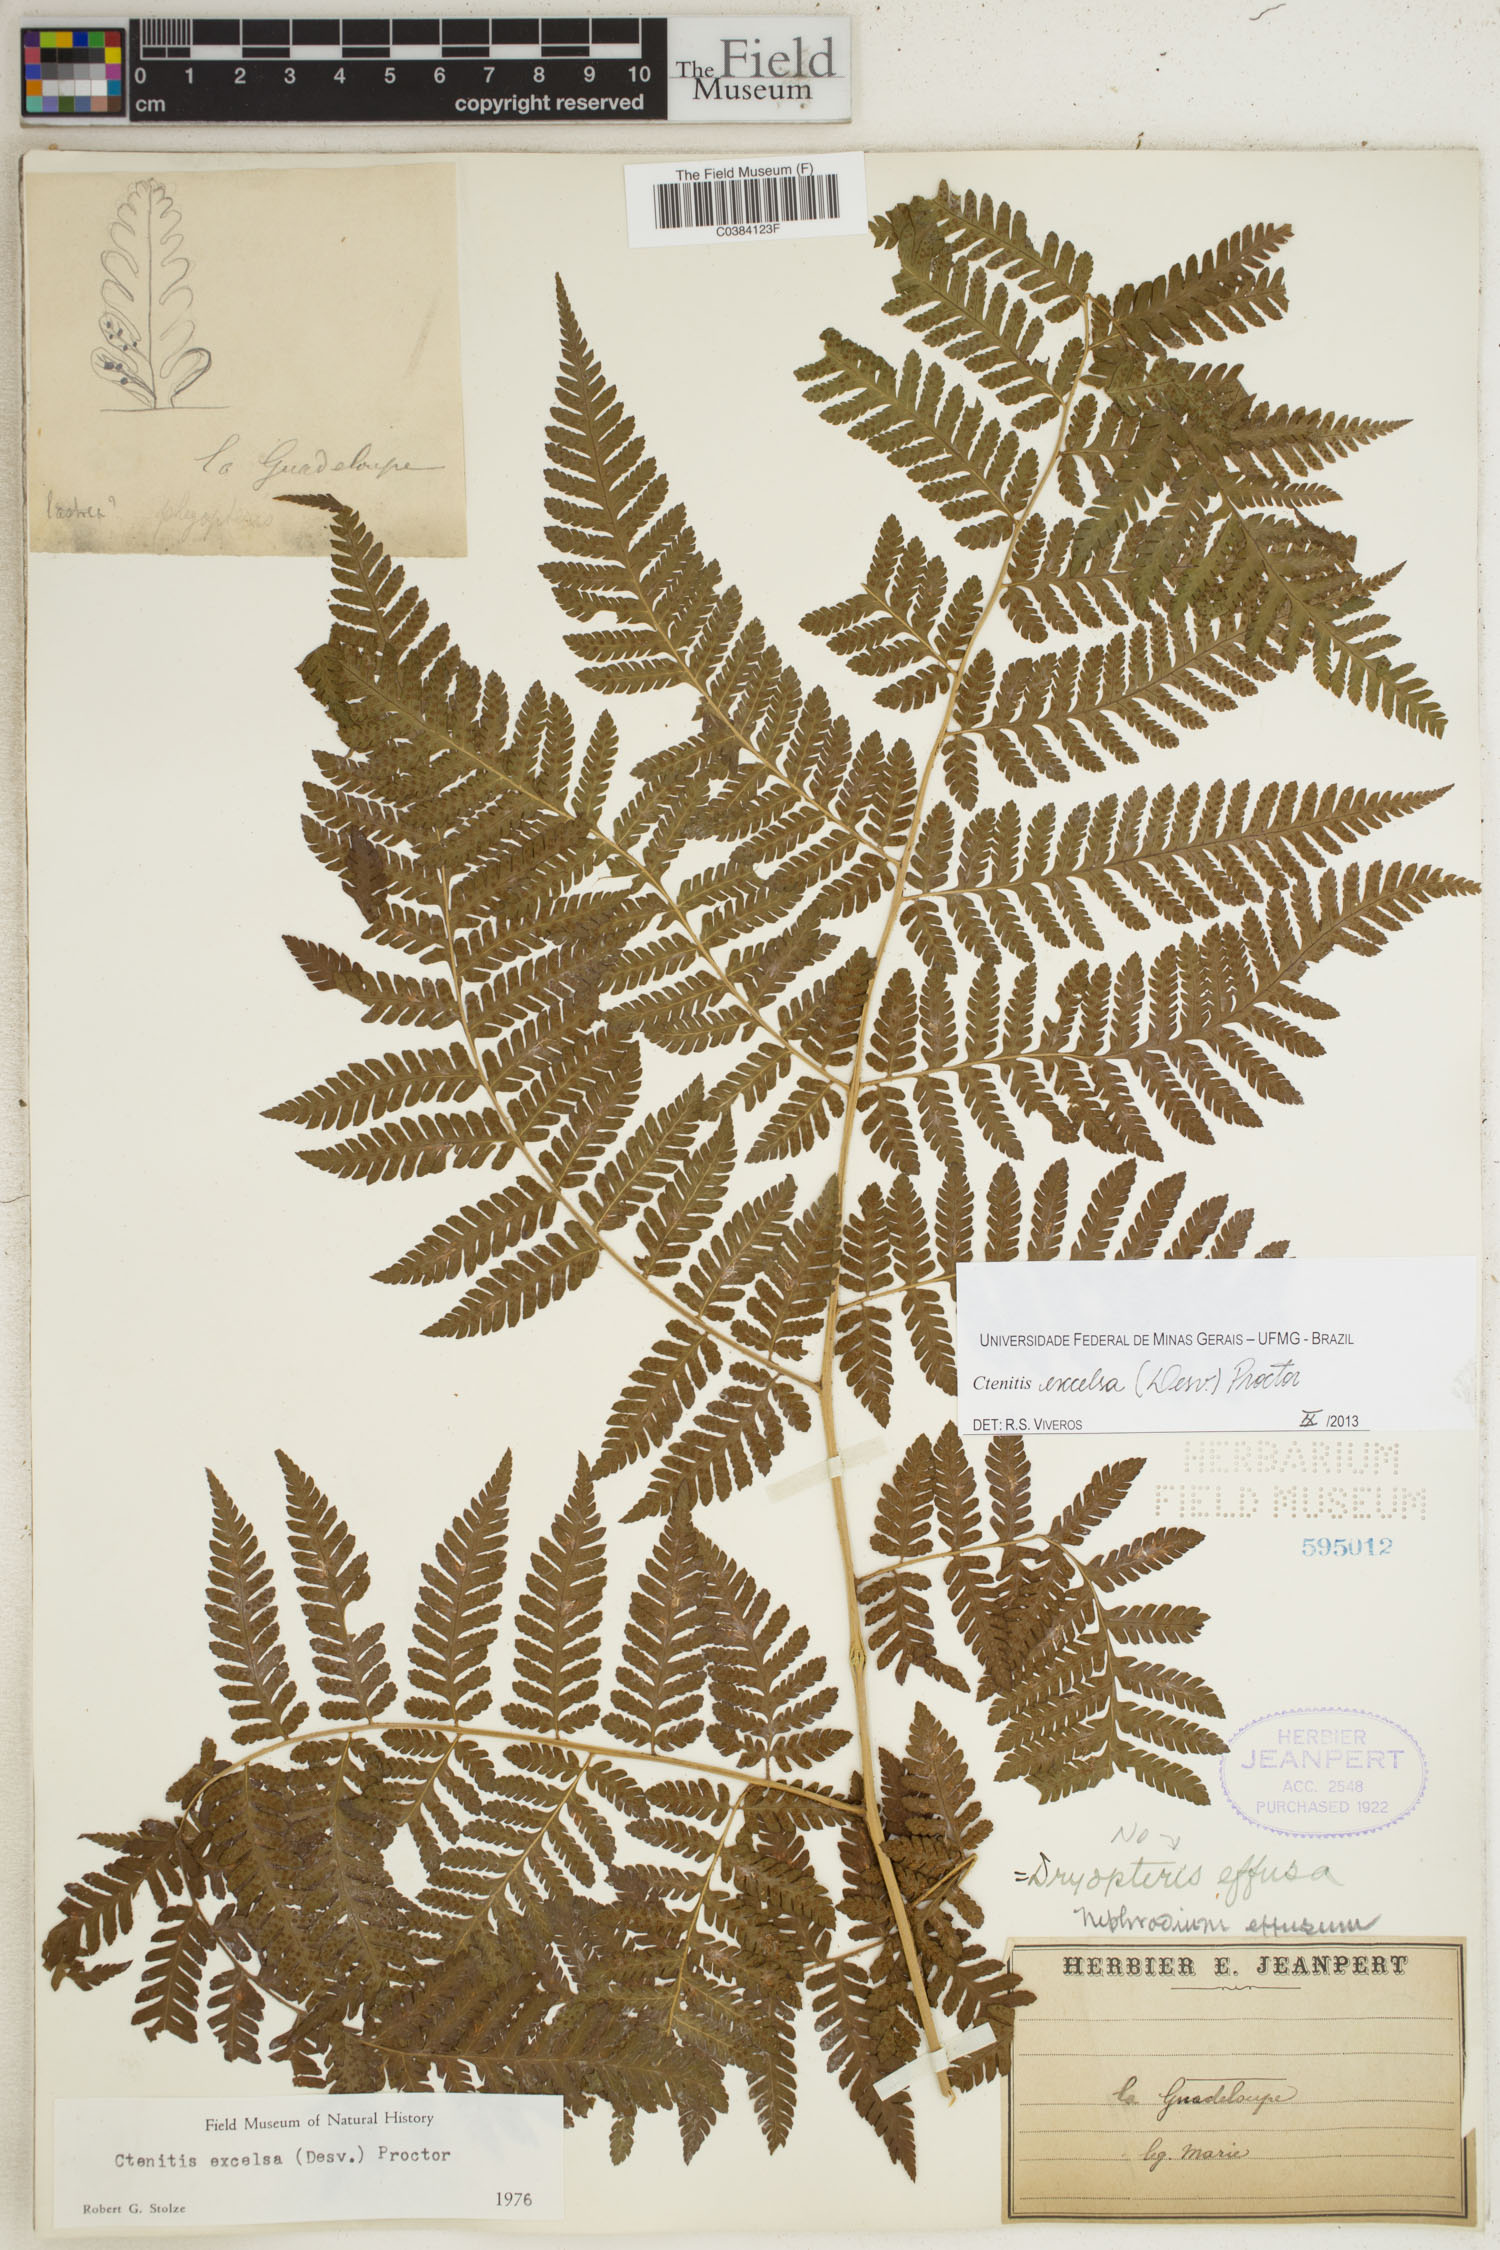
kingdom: Plantae
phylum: Tracheophyta
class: Polypodiopsida
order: Polypodiales
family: Dryopteridaceae
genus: Ctenitis
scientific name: Ctenitis excelsa
